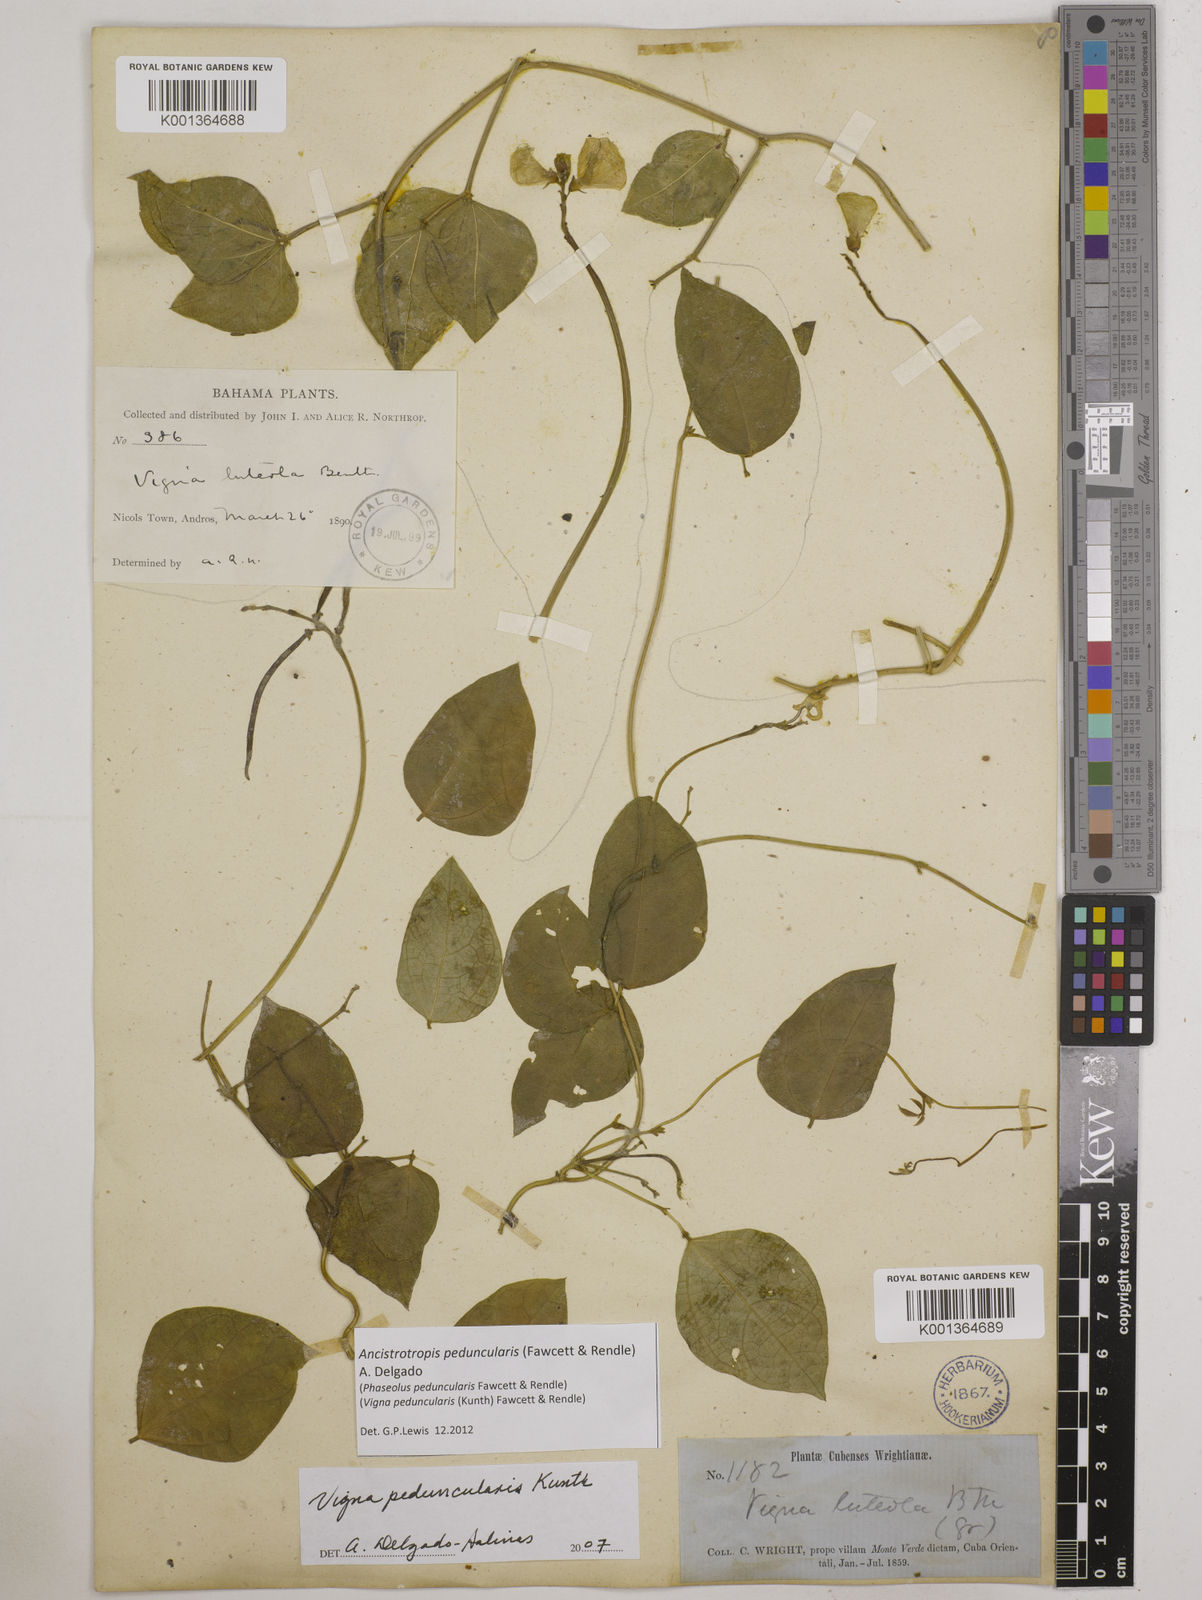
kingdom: Plantae
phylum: Tracheophyta
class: Magnoliopsida
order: Fabales
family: Fabaceae
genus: Ancistrotropis
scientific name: Ancistrotropis peduncularis
